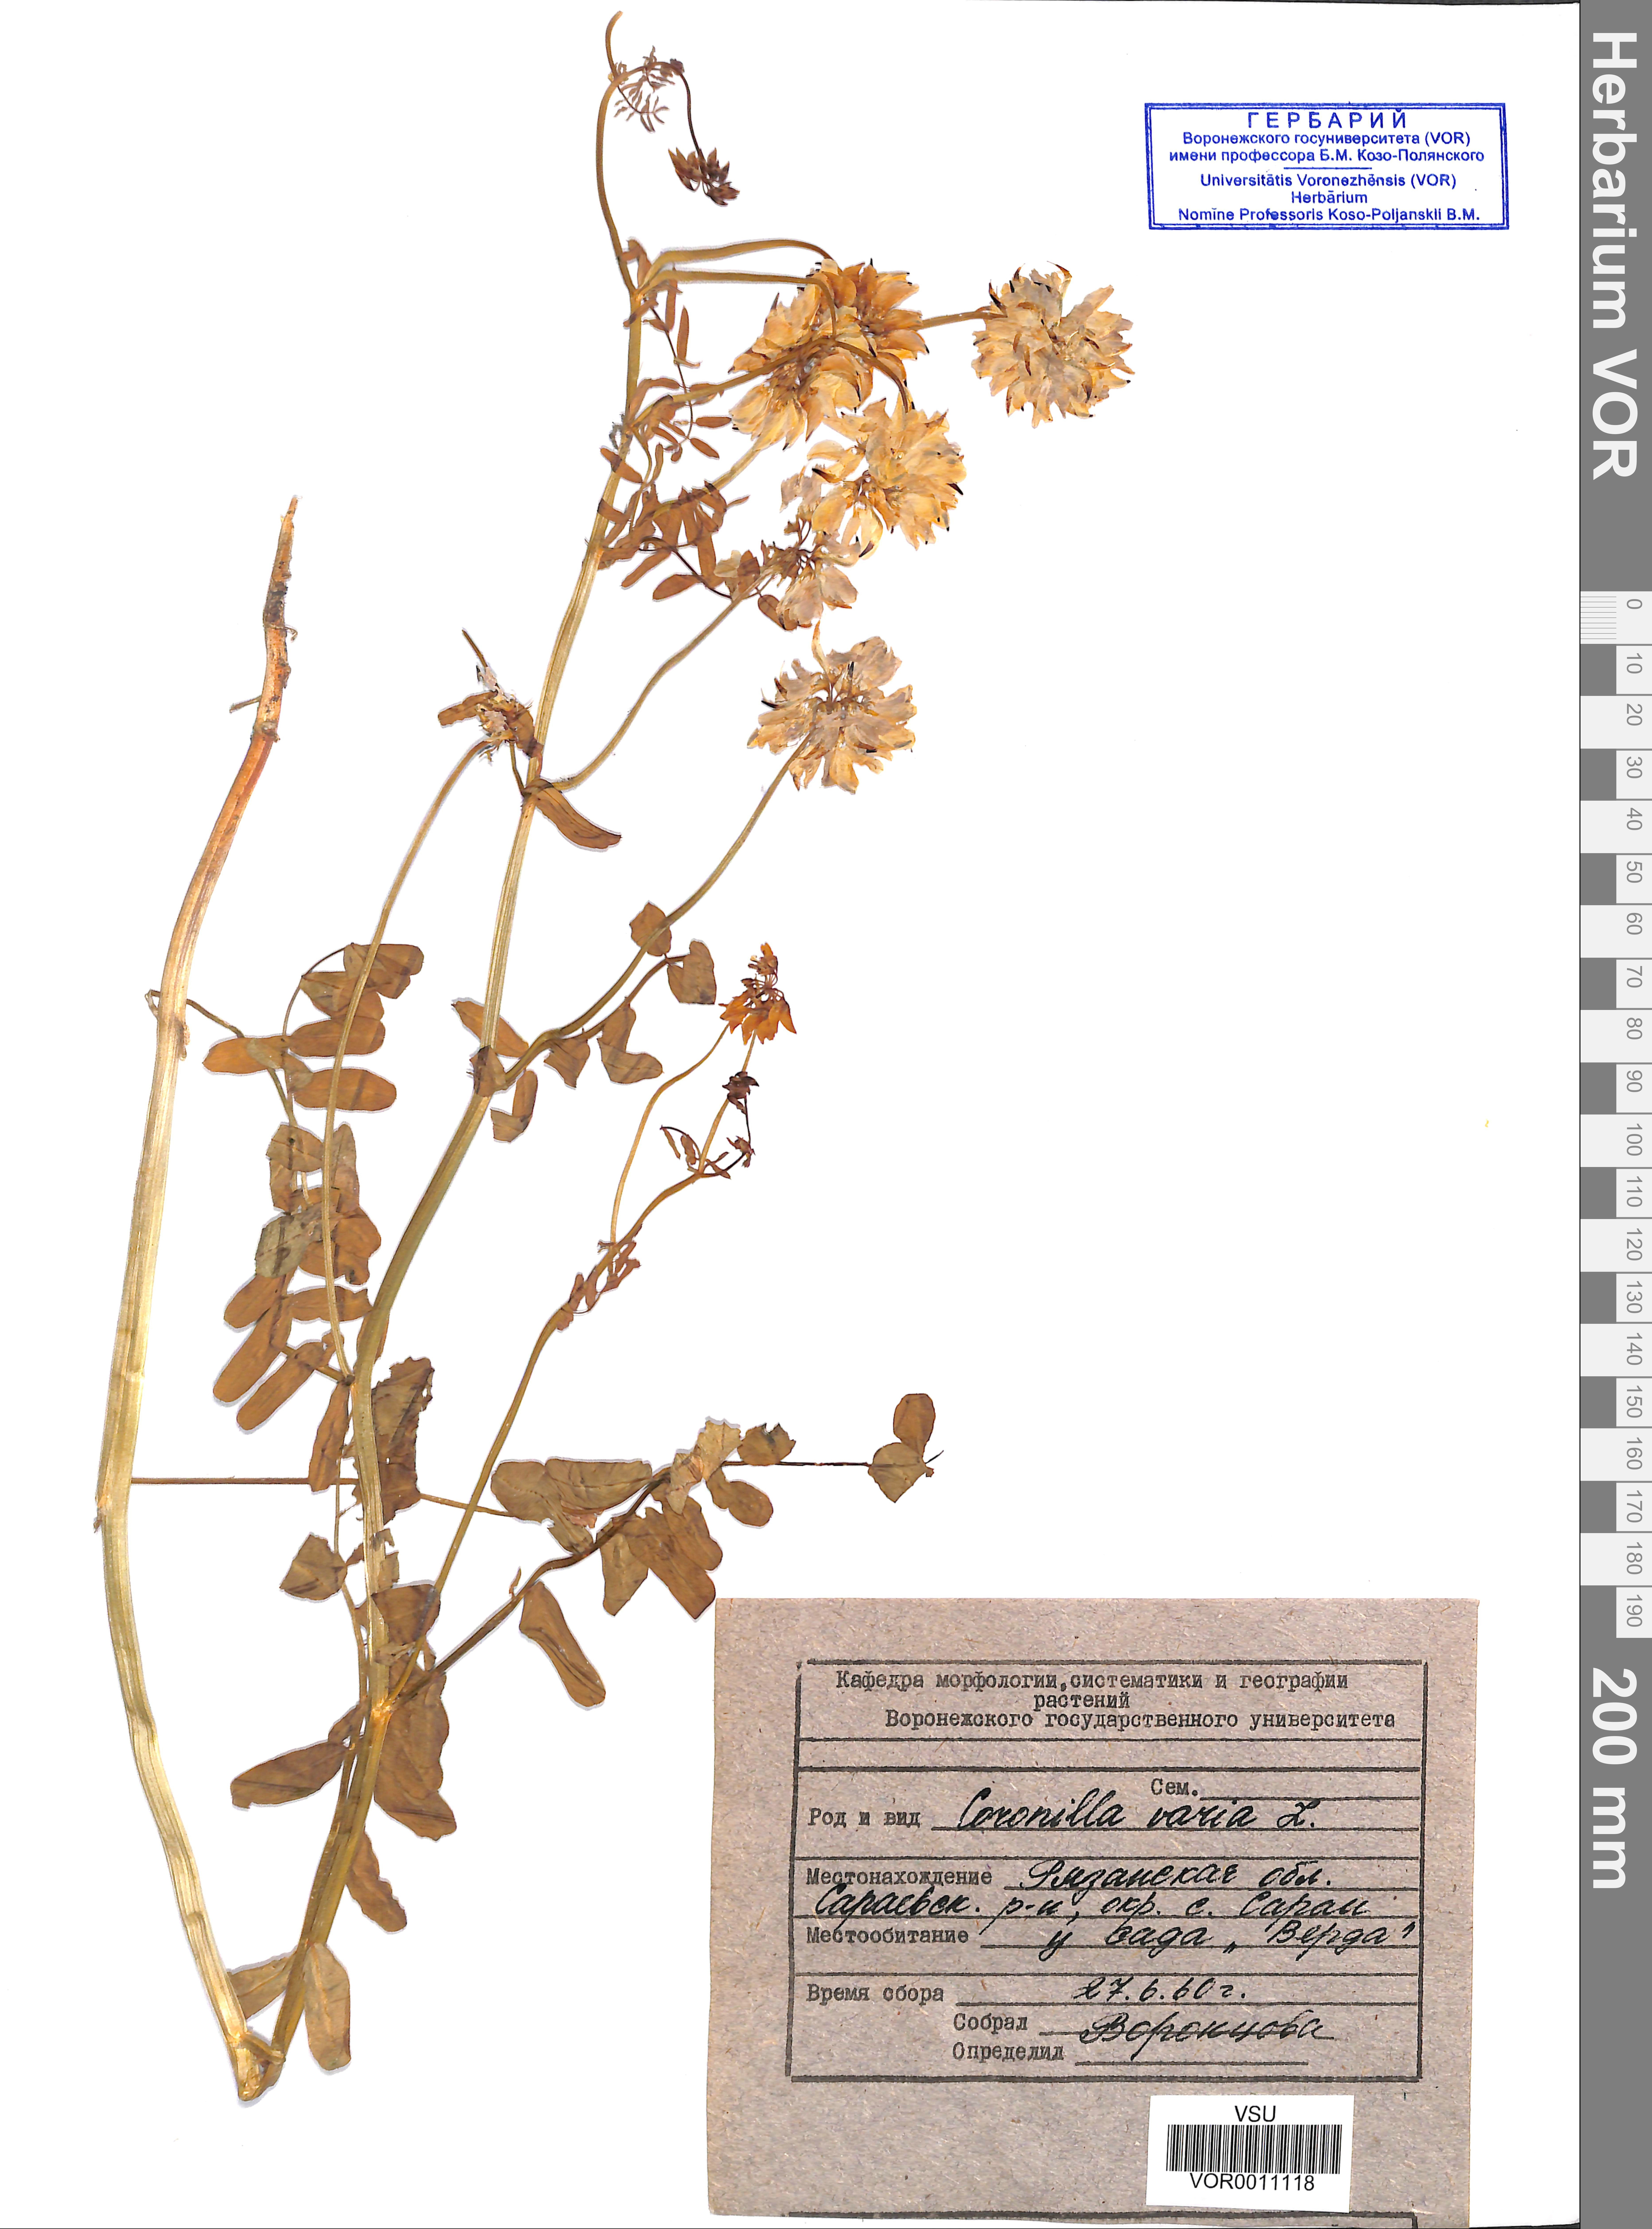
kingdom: Plantae
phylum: Tracheophyta
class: Magnoliopsida
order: Fabales
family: Fabaceae
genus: Coronilla
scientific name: Coronilla varia
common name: Crownvetch
